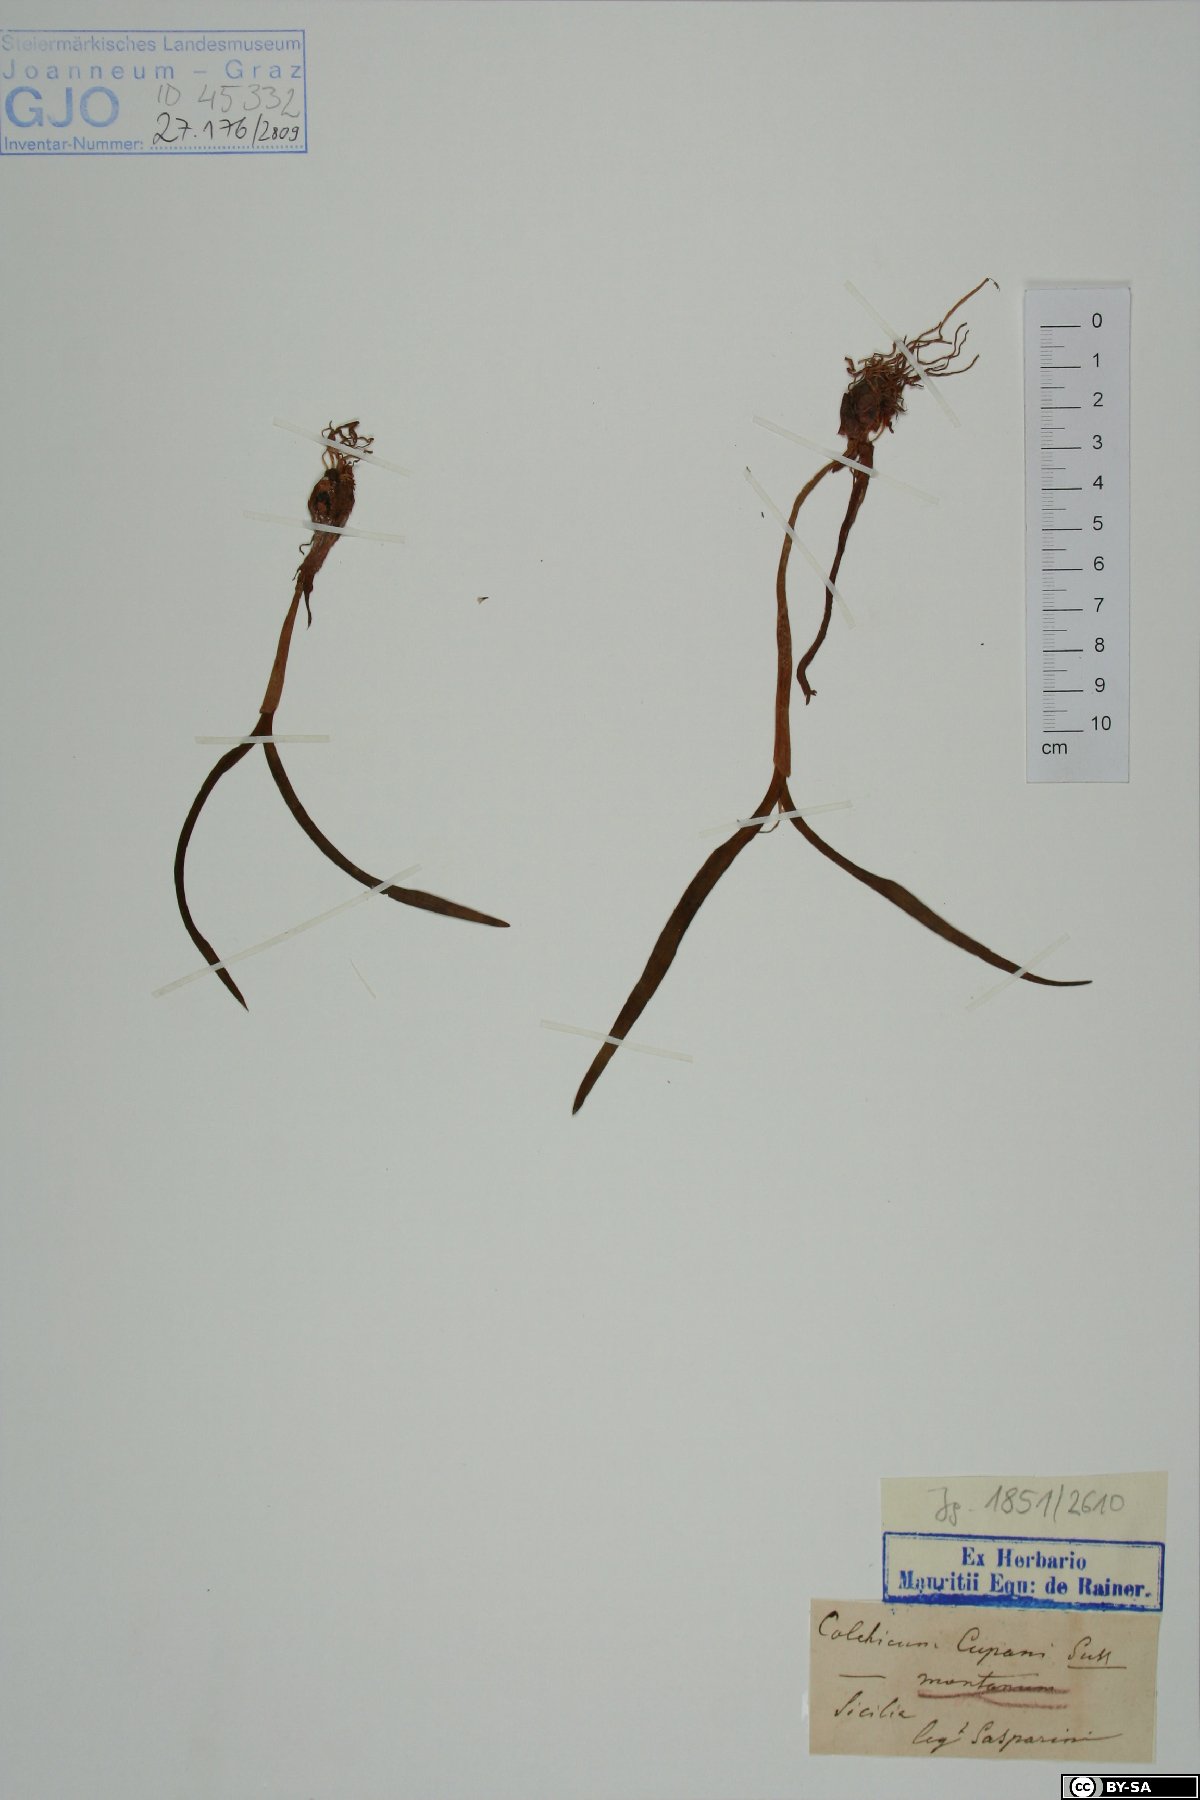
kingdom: Plantae
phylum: Tracheophyta
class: Liliopsida
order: Liliales
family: Colchicaceae
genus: Colchicum
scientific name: Colchicum cupanii
